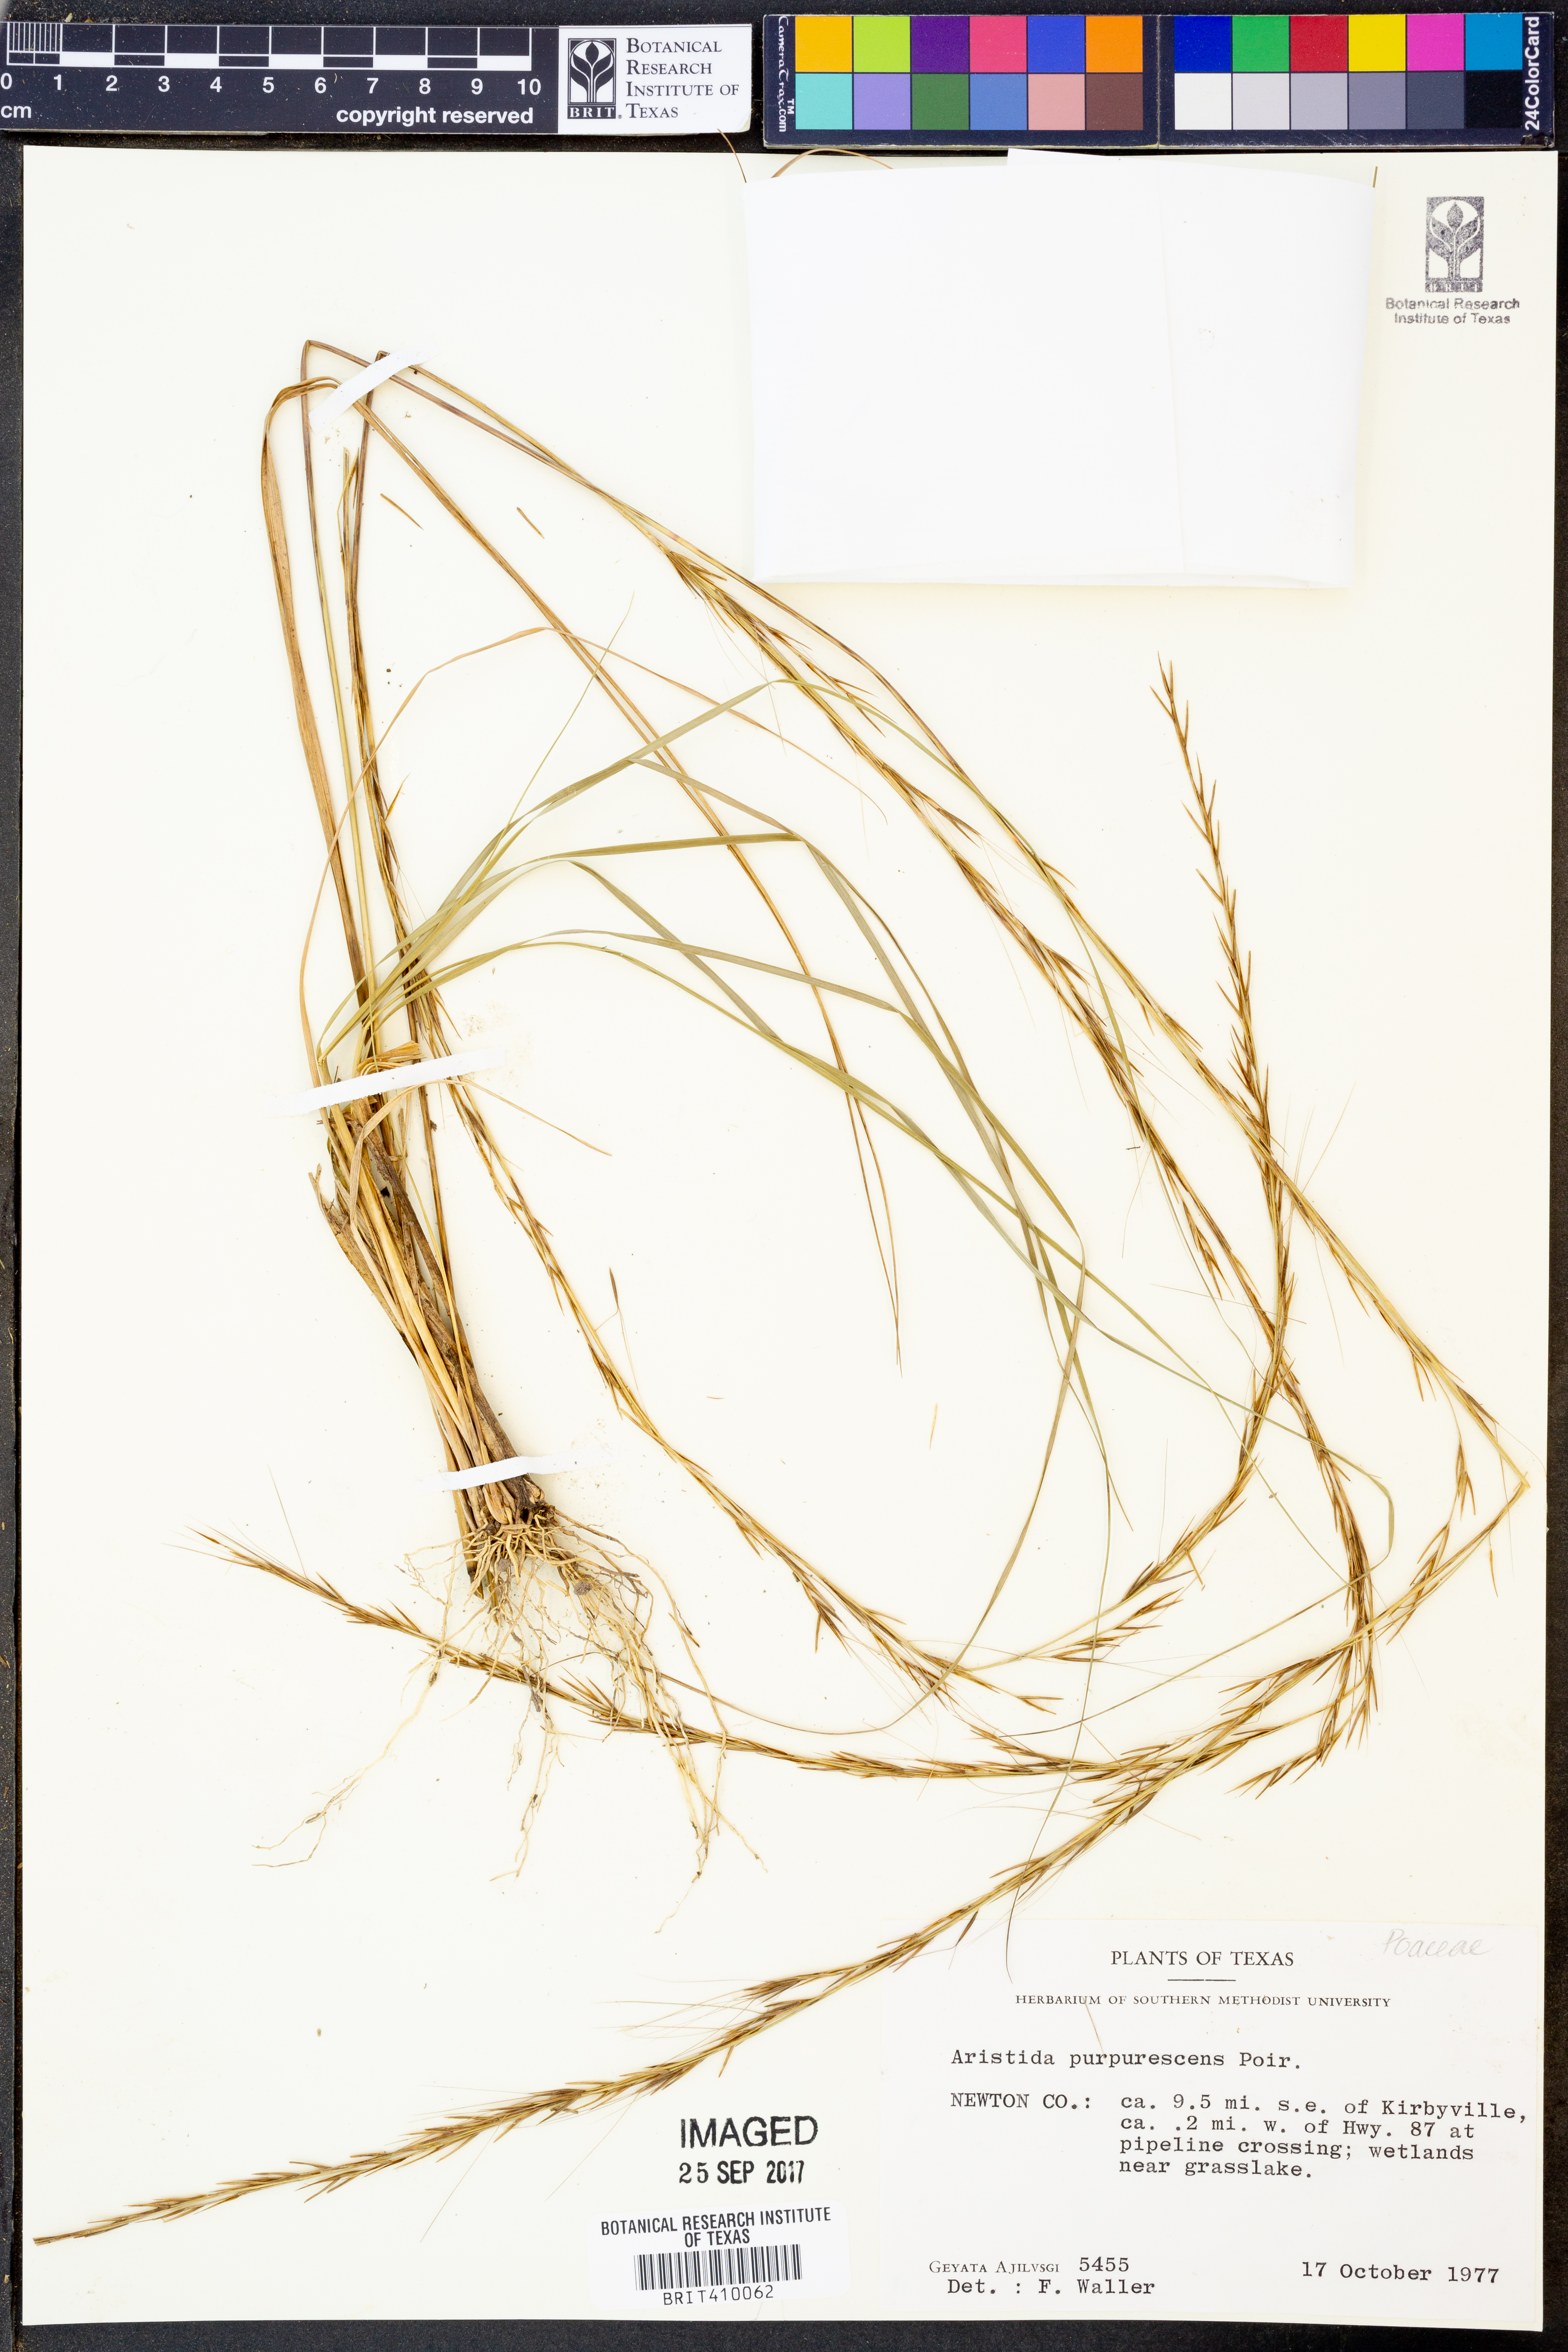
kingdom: Plantae
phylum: Tracheophyta
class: Liliopsida
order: Poales
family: Poaceae
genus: Aristida
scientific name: Aristida purpurascens
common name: Arrow-feather
